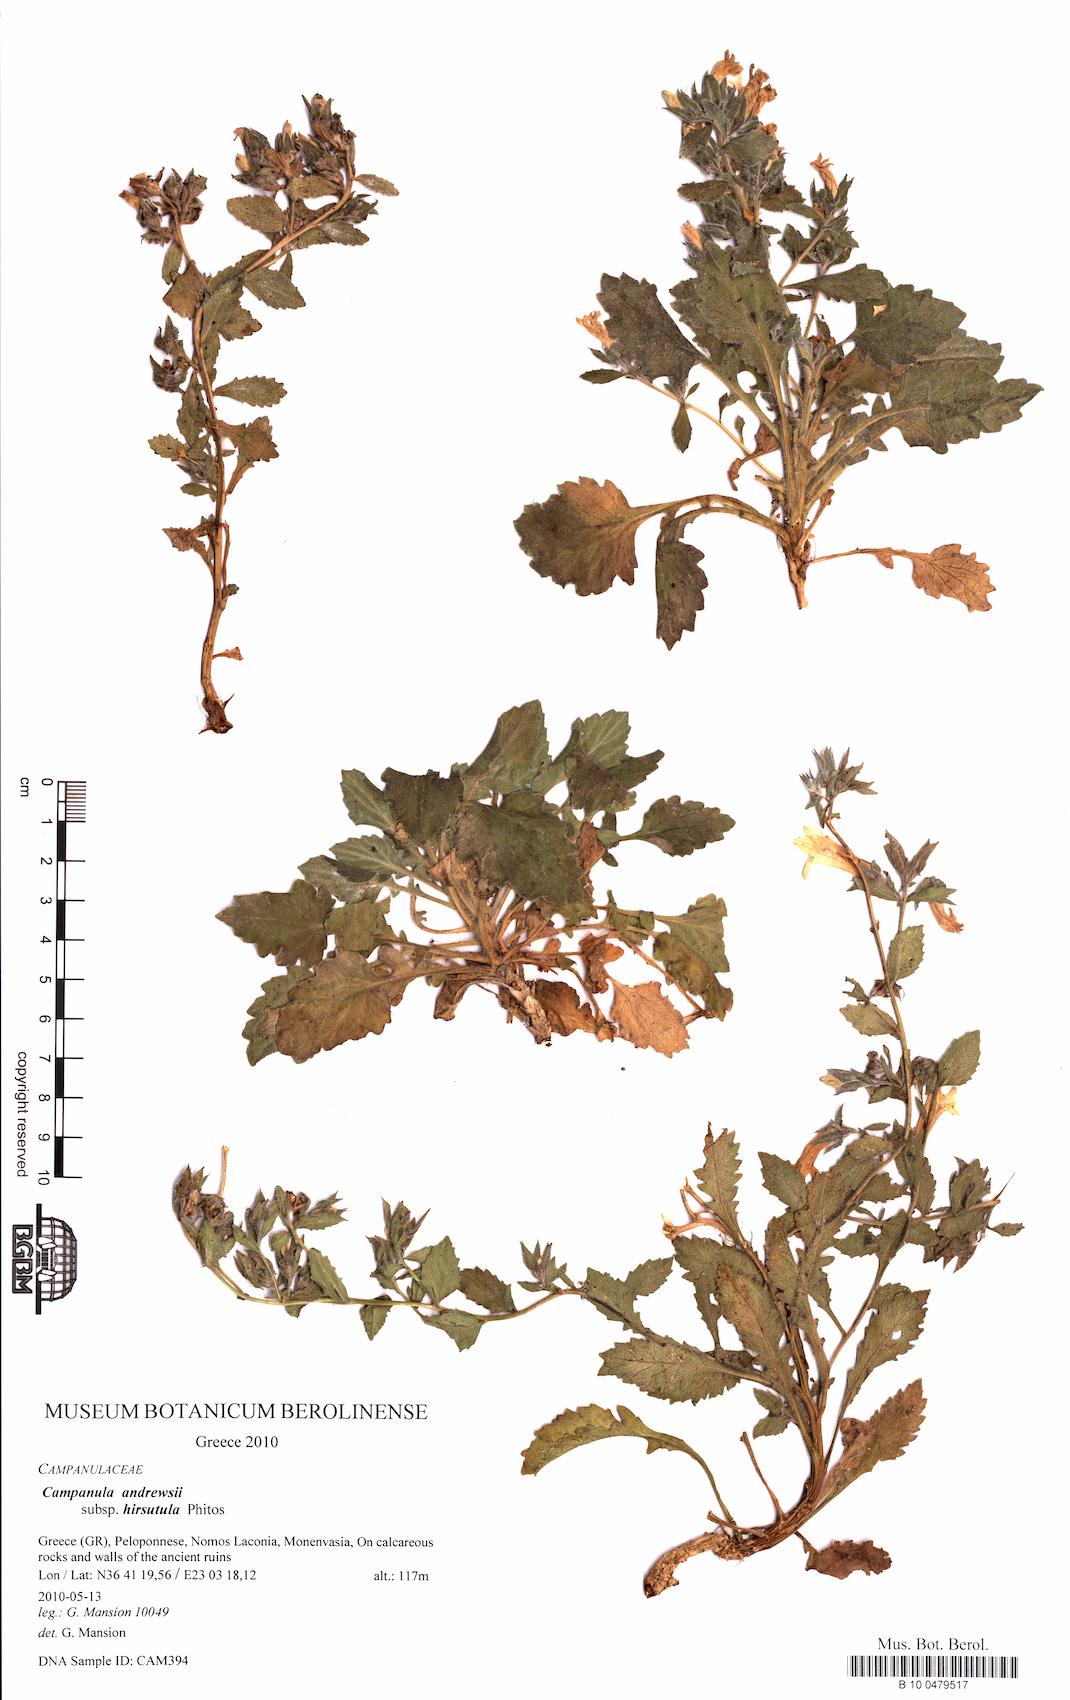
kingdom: Plantae
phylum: Tracheophyta
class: Magnoliopsida
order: Asterales
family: Campanulaceae
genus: Campanula
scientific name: Campanula andrewsii
